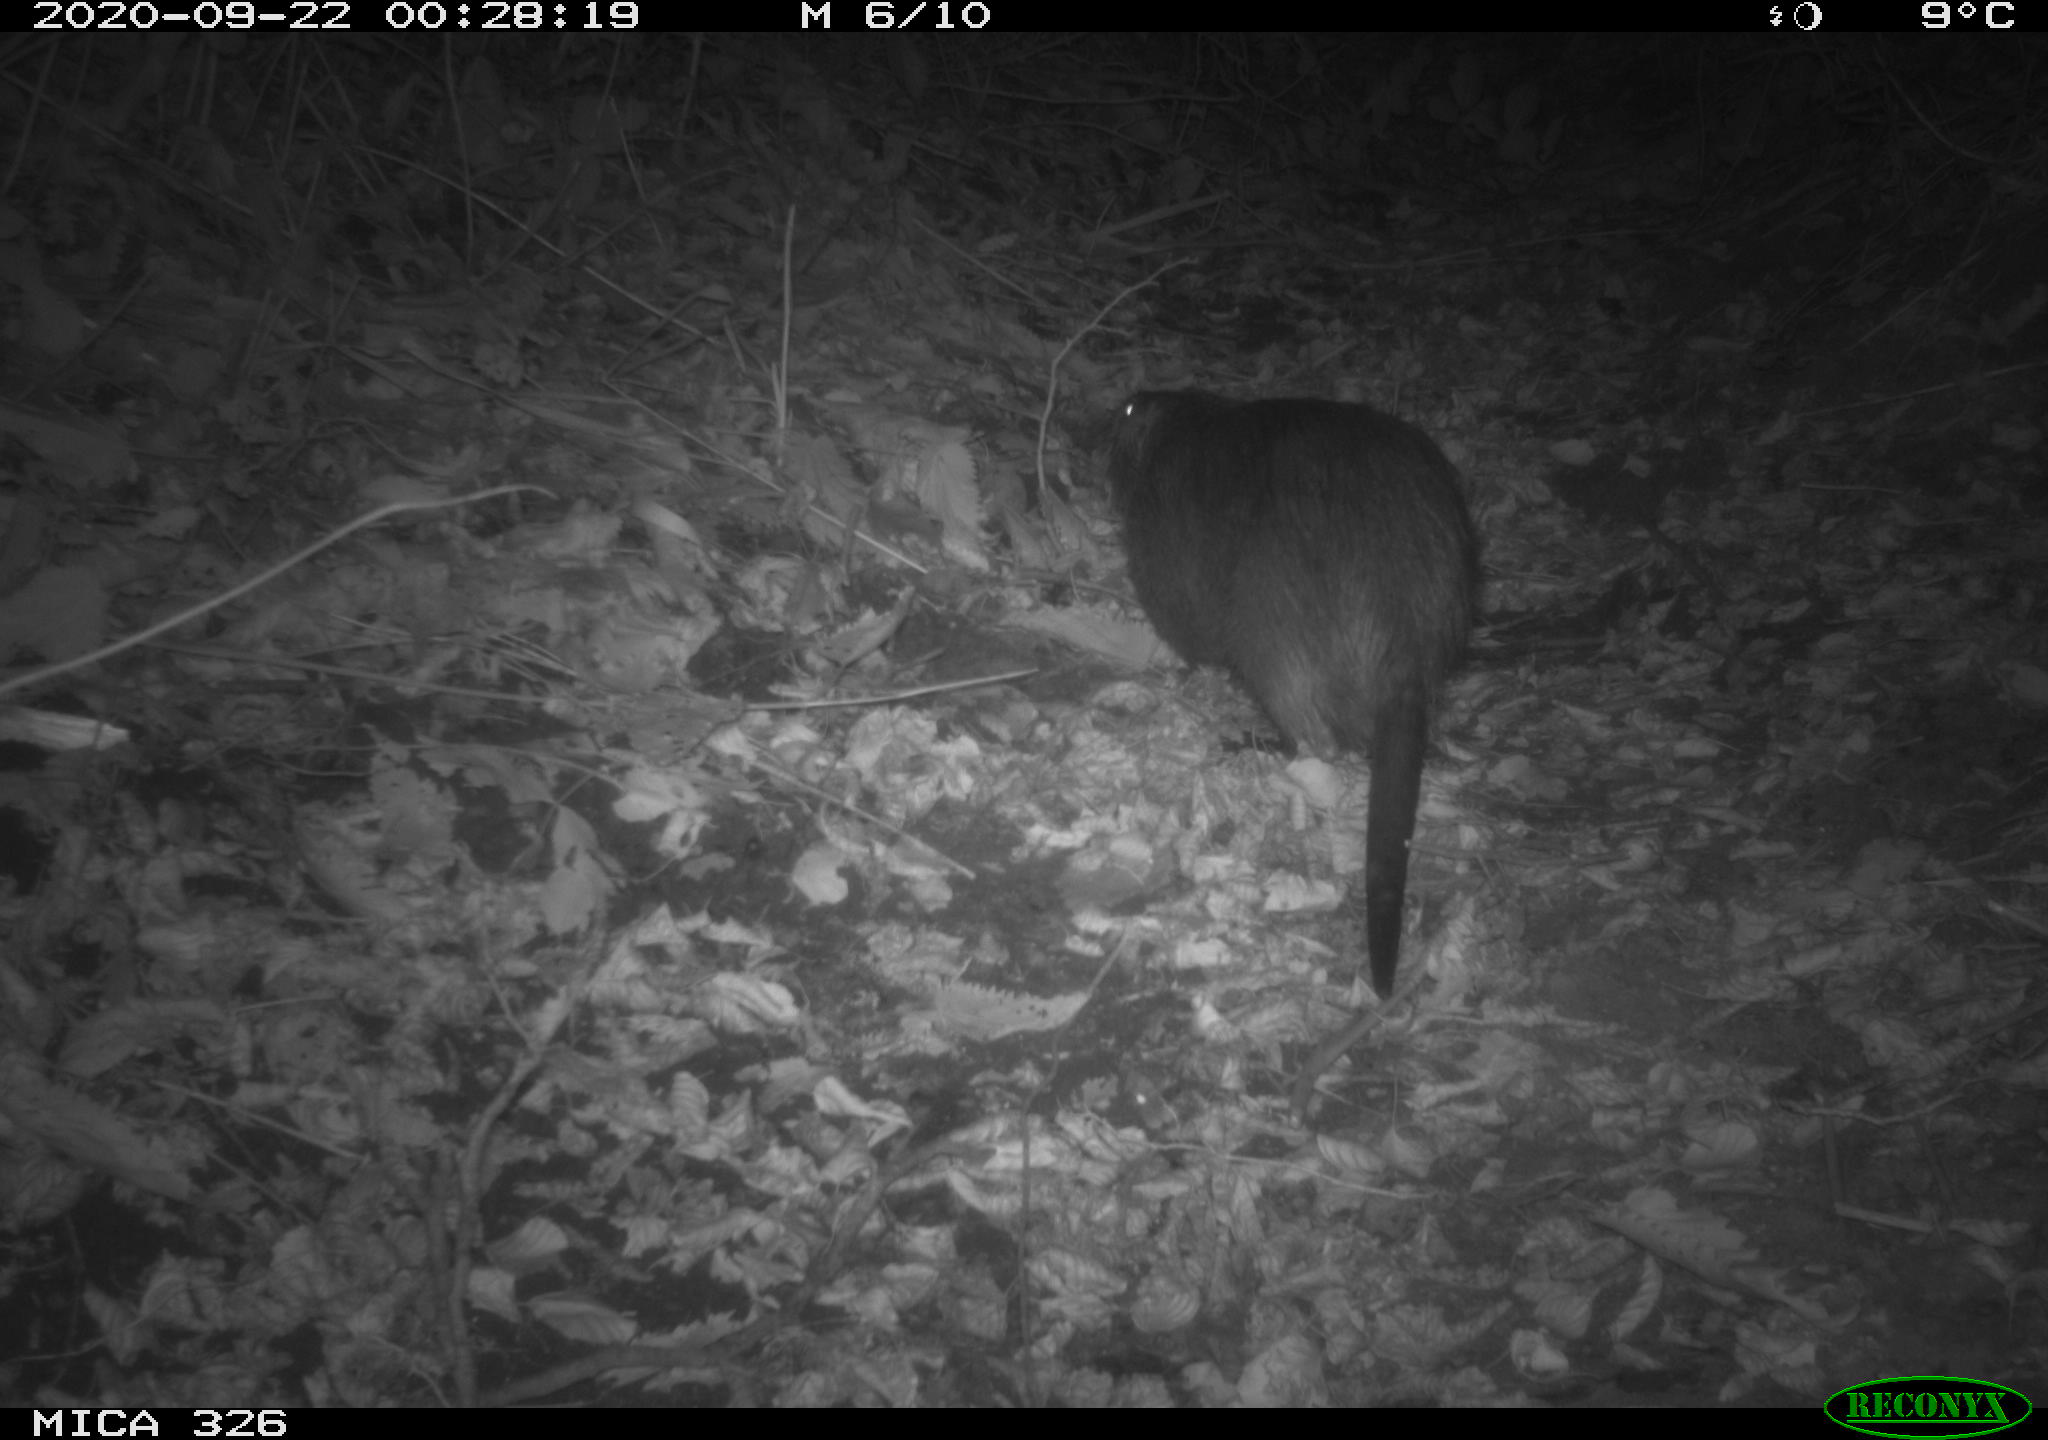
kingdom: Animalia
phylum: Chordata
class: Mammalia
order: Rodentia
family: Myocastoridae
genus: Myocastor
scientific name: Myocastor coypus
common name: Coypu
